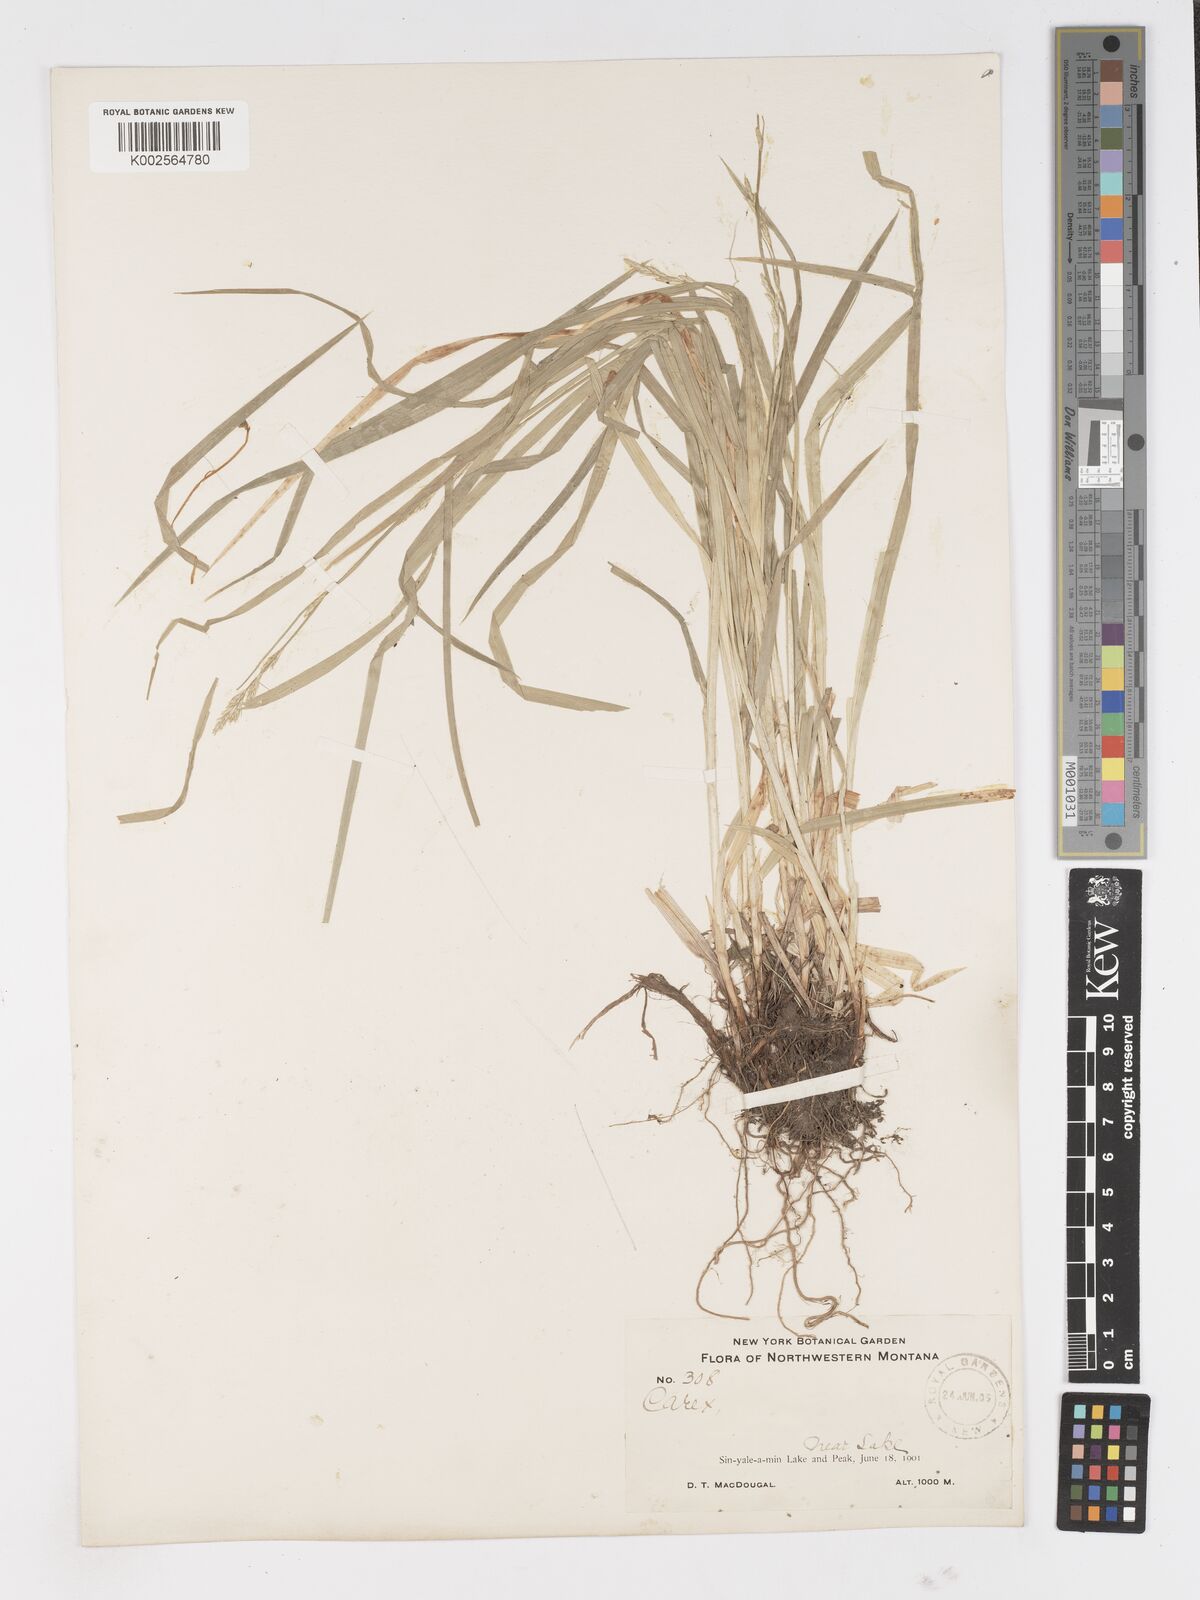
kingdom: Plantae
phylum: Tracheophyta
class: Liliopsida
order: Poales
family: Cyperaceae
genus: Carex
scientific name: Carex
